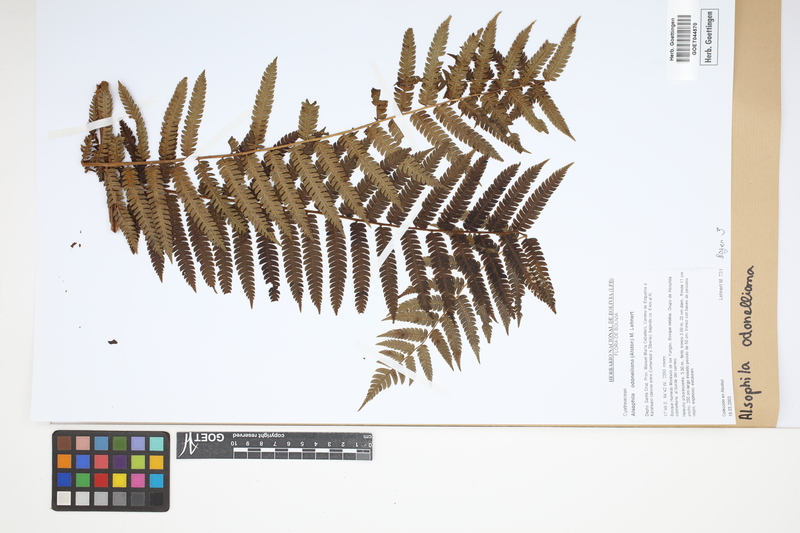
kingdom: Plantae
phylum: Tracheophyta
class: Polypodiopsida
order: Cyatheales
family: Cyatheaceae
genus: Alsophila
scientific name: Alsophila odonelliana
